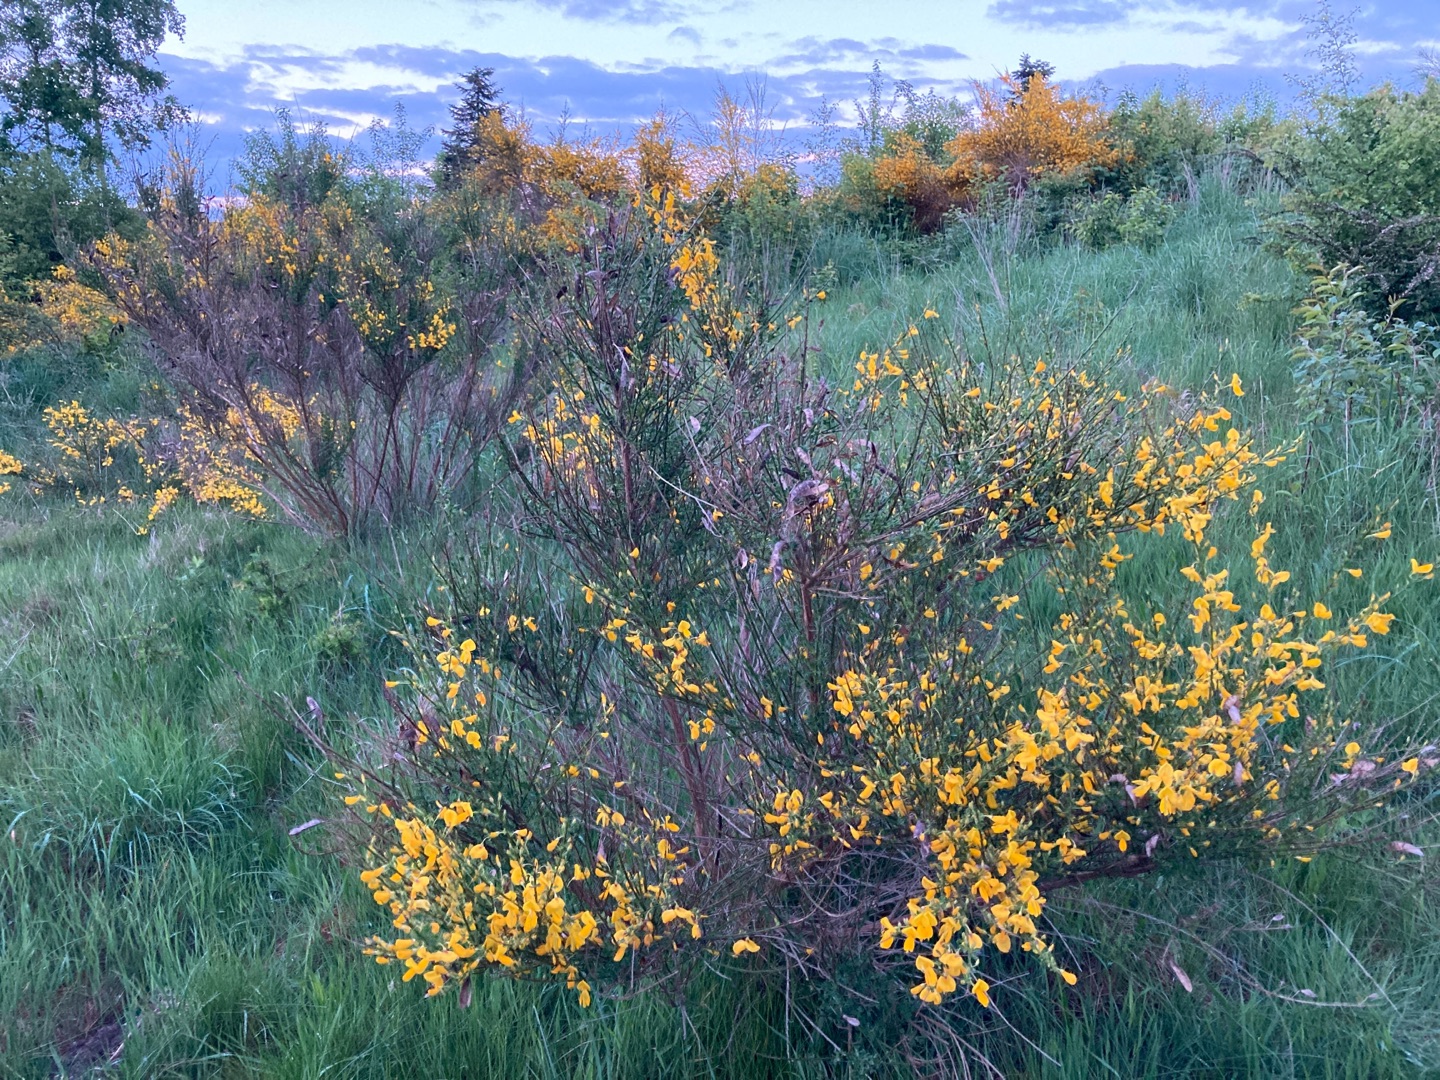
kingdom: Plantae
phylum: Tracheophyta
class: Magnoliopsida
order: Fabales
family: Fabaceae
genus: Cytisus
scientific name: Cytisus scoparius
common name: Almindelig gyvel
